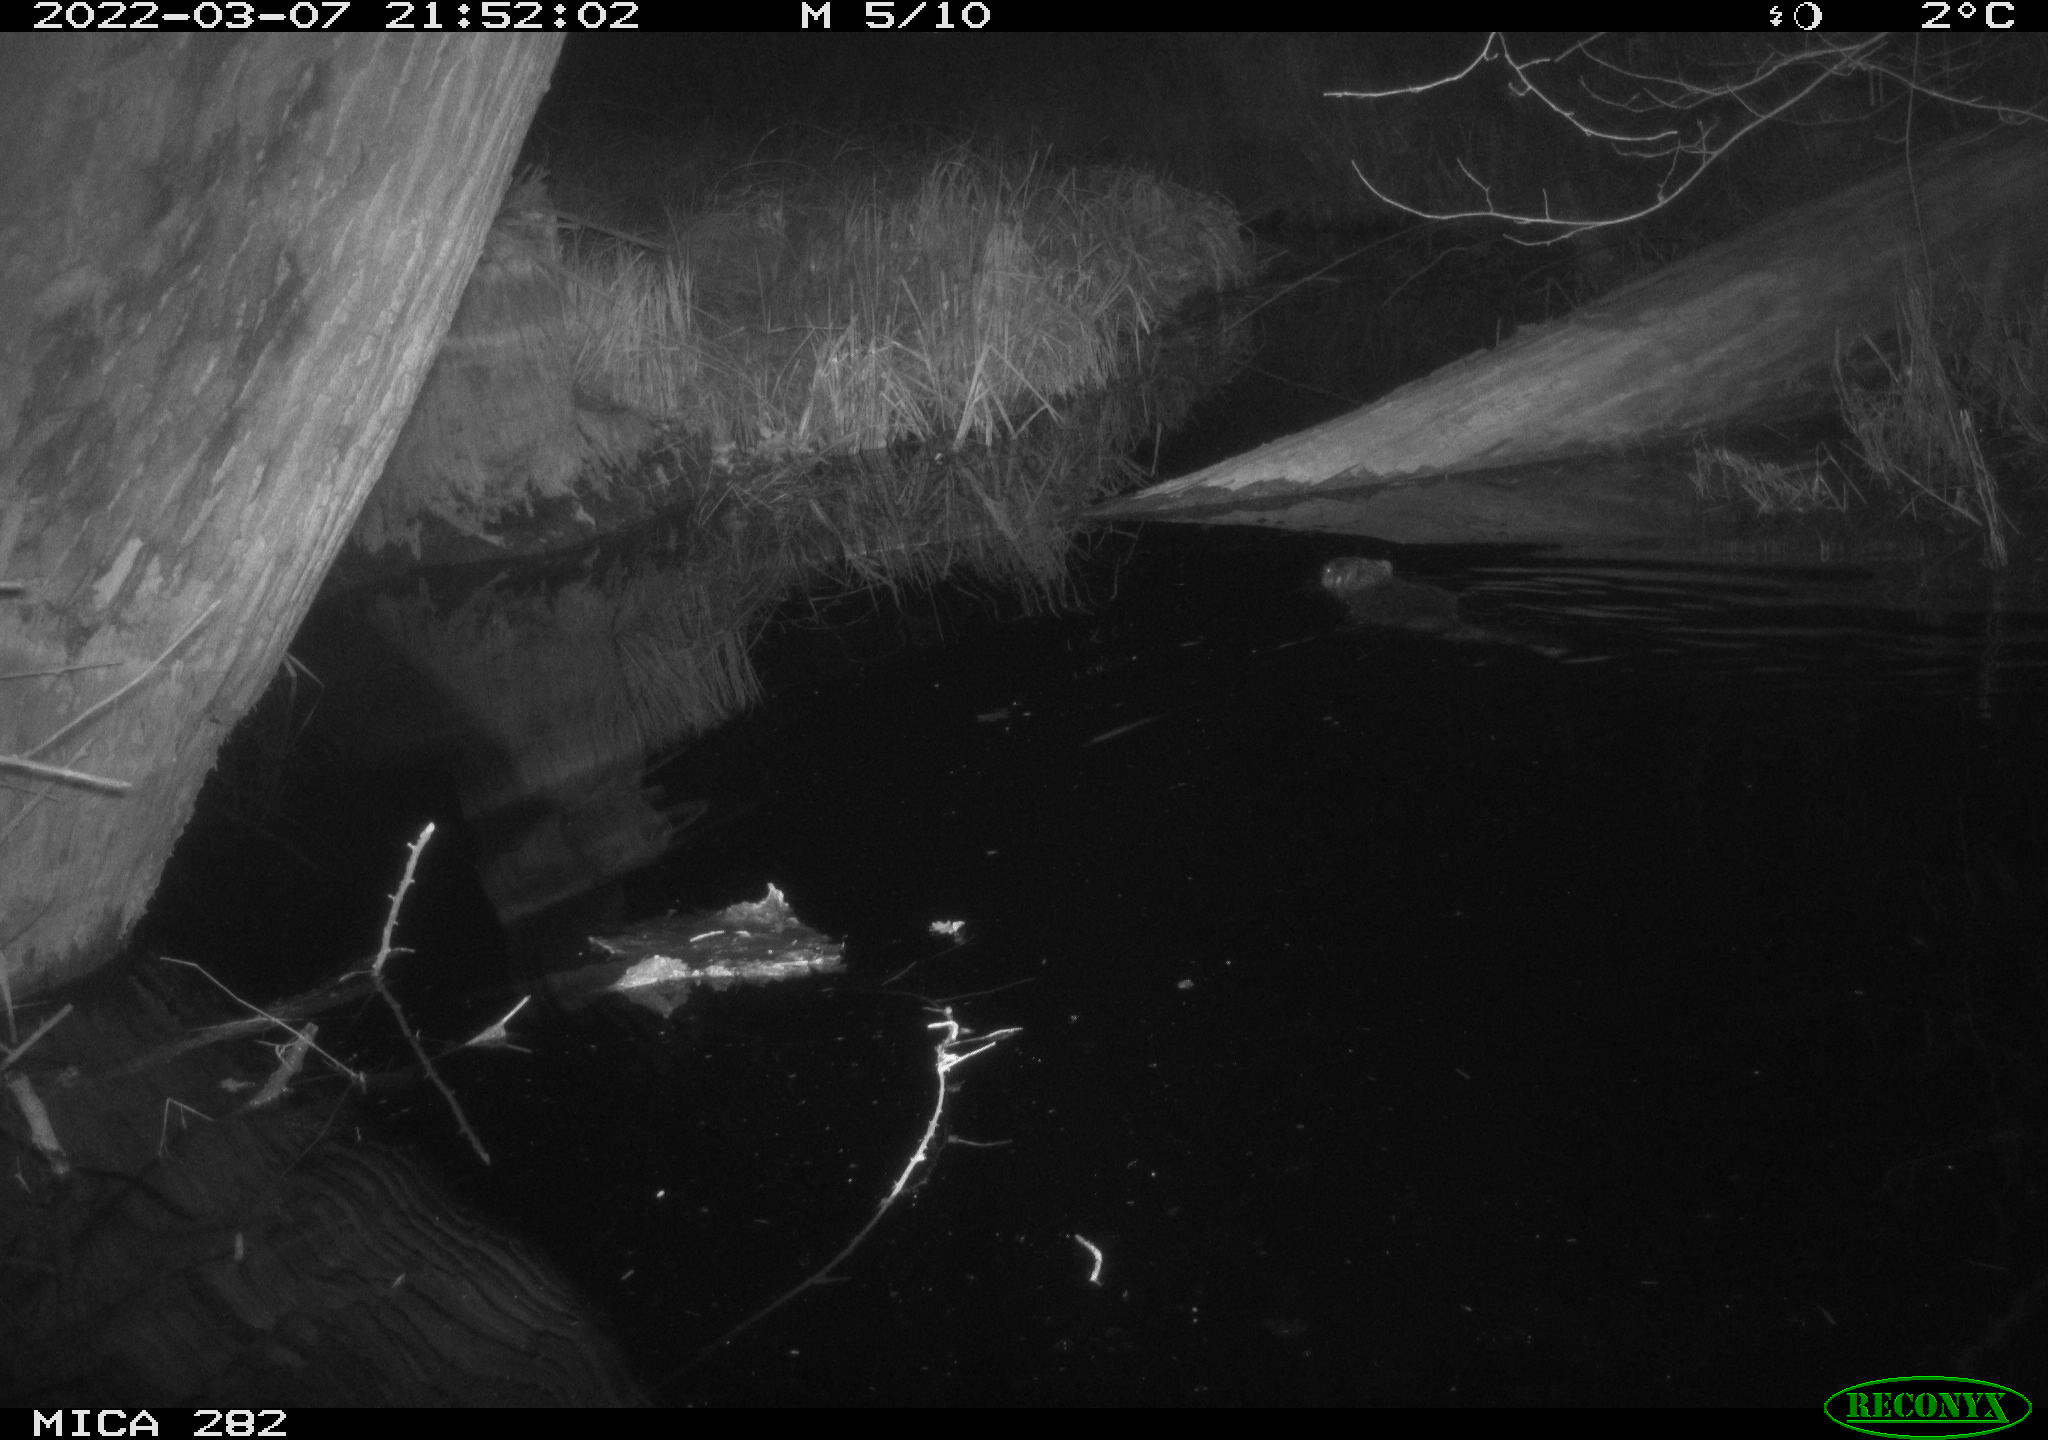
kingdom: Animalia
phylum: Chordata
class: Mammalia
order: Rodentia
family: Castoridae
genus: Castor
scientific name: Castor fiber
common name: Eurasian beaver
